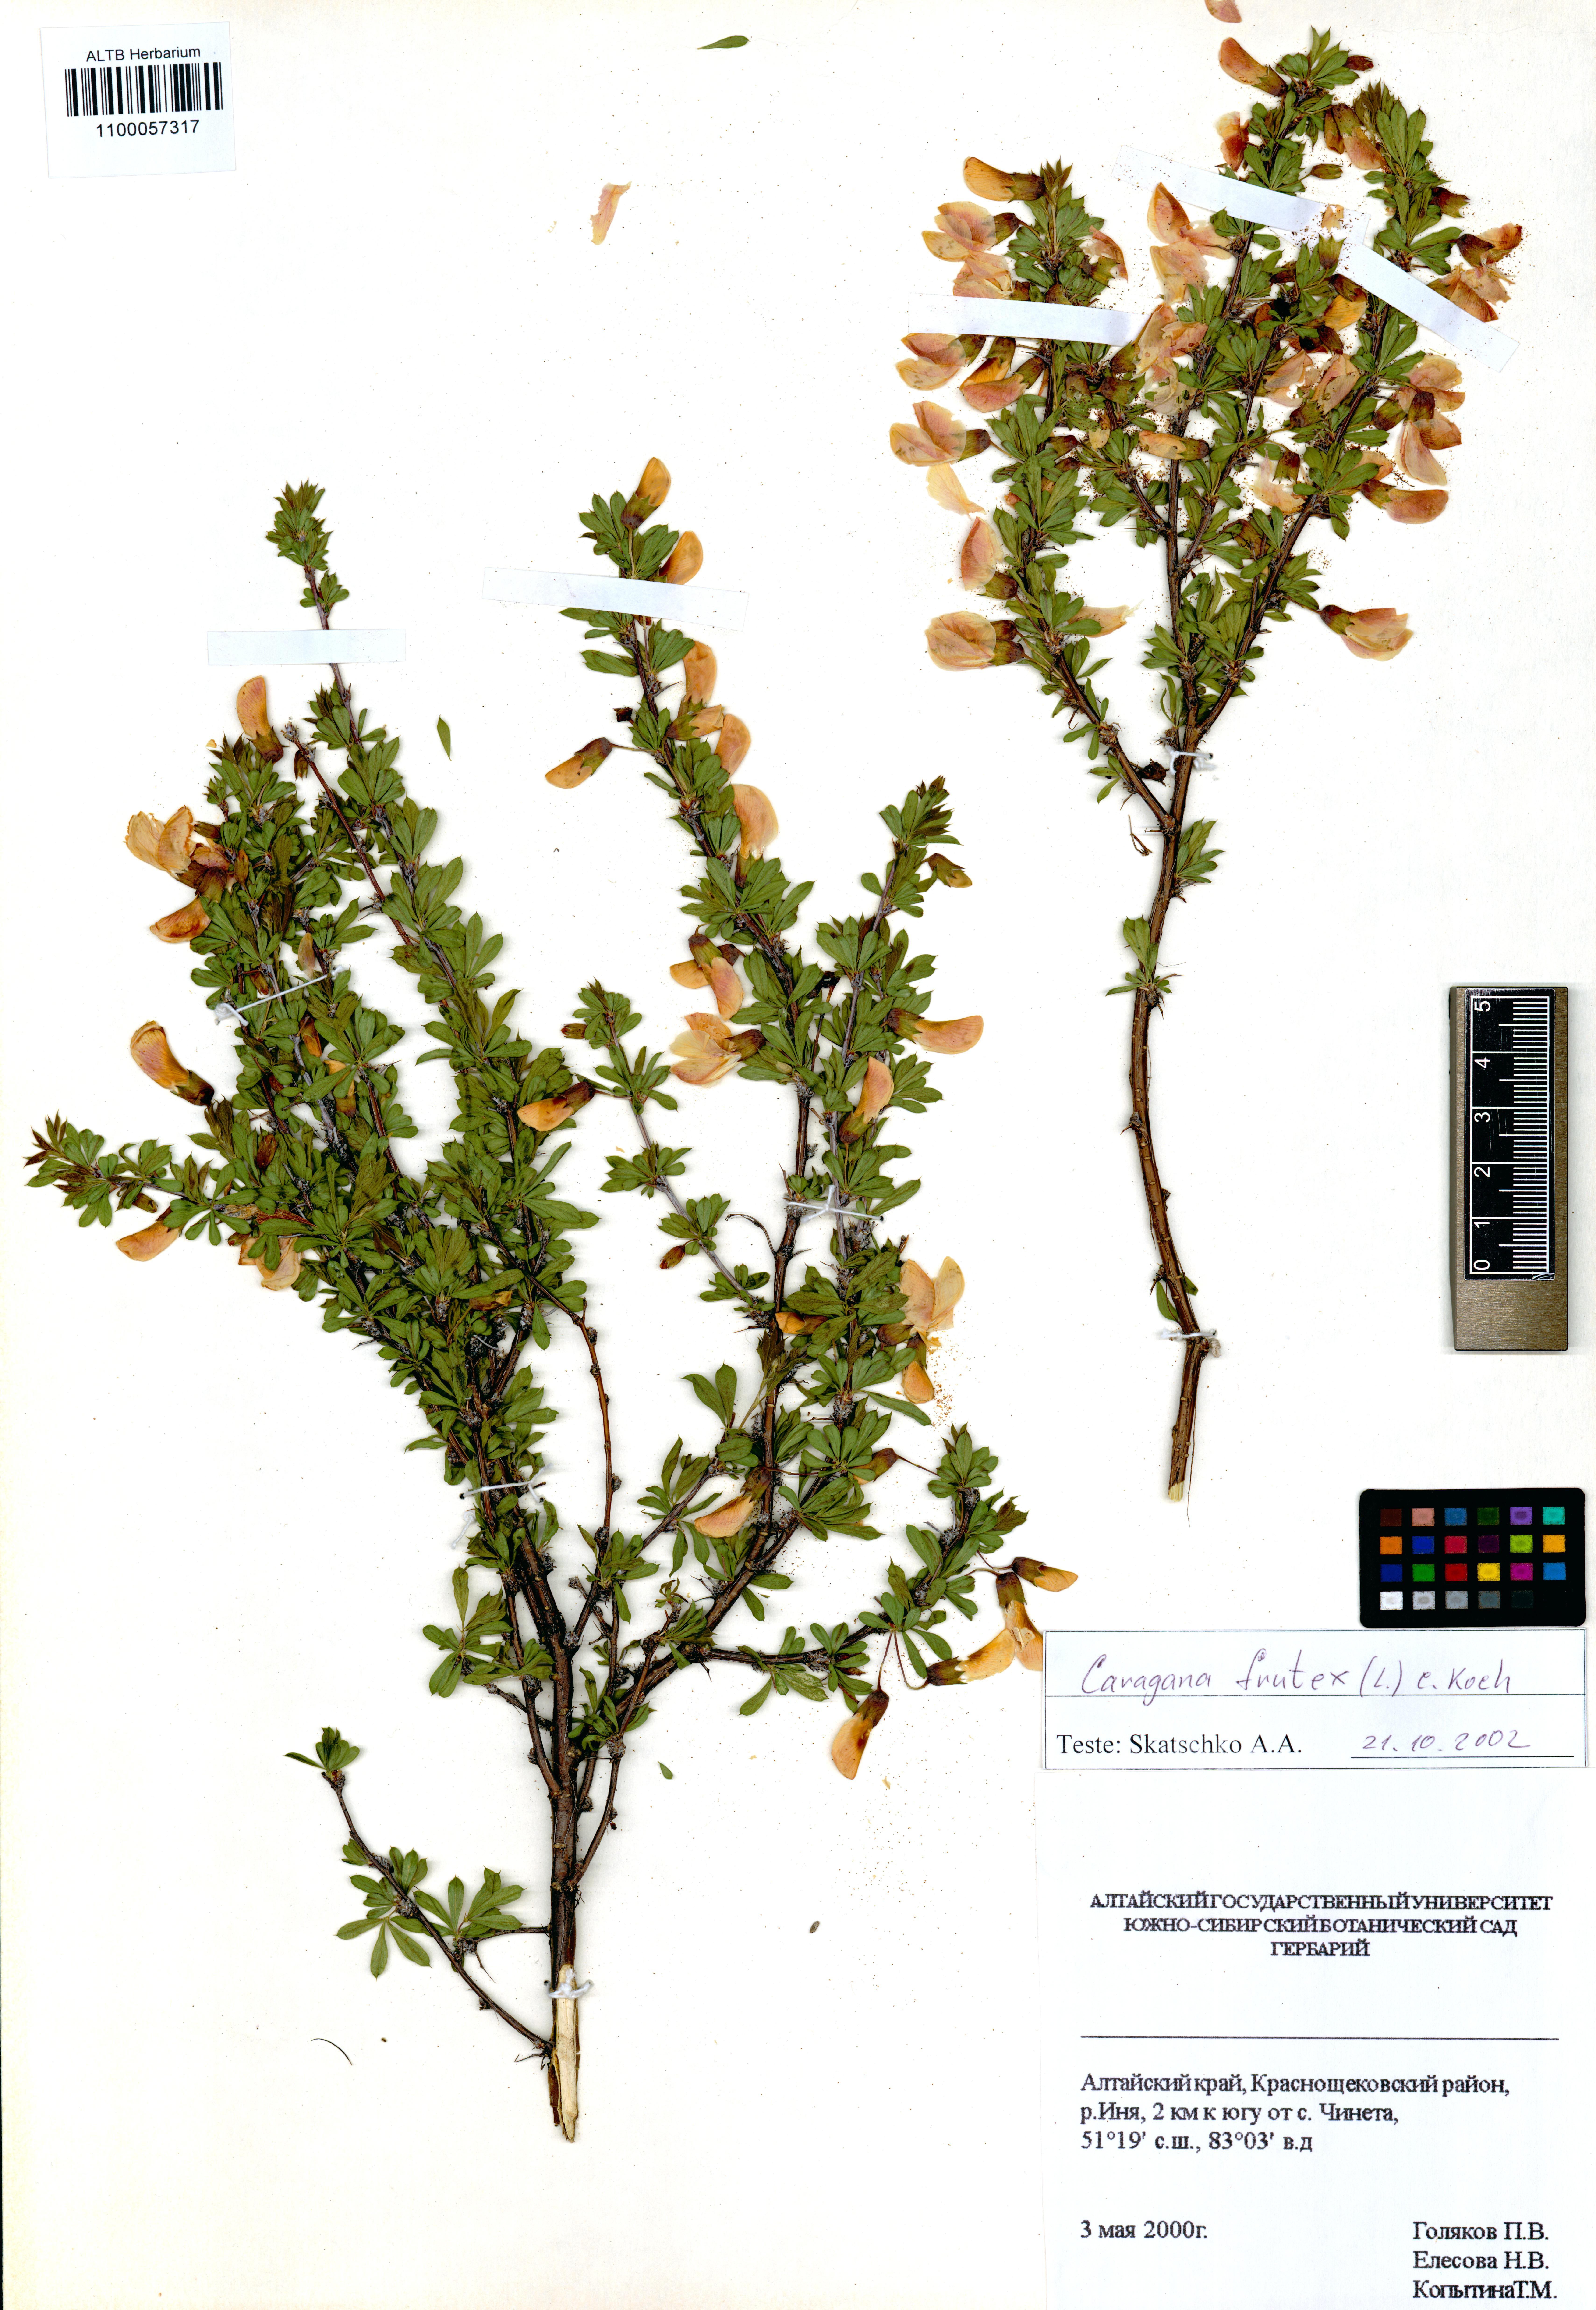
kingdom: Plantae
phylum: Tracheophyta
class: Magnoliopsida
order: Fabales
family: Fabaceae
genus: Caragana
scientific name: Caragana frutex
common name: Russian peashrub
